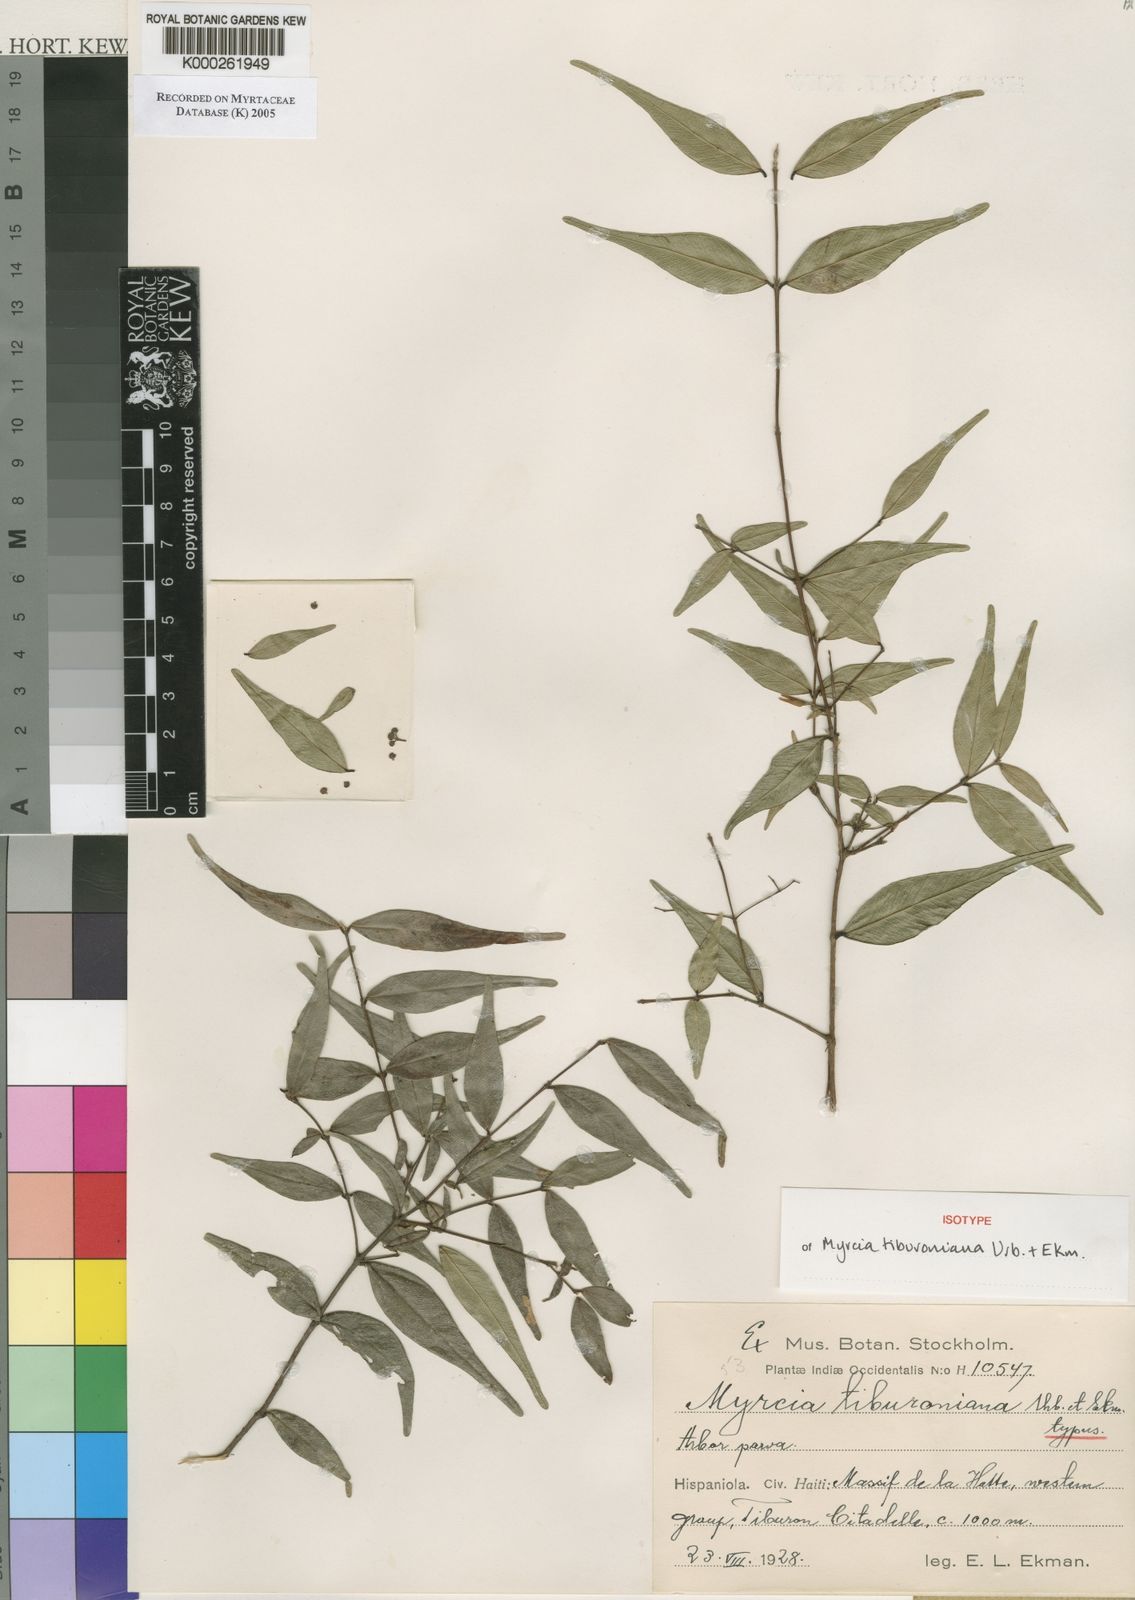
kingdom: Plantae
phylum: Tracheophyta
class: Magnoliopsida
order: Myrtales
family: Myrtaceae
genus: Myrcia
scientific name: Myrcia tiburoniana
